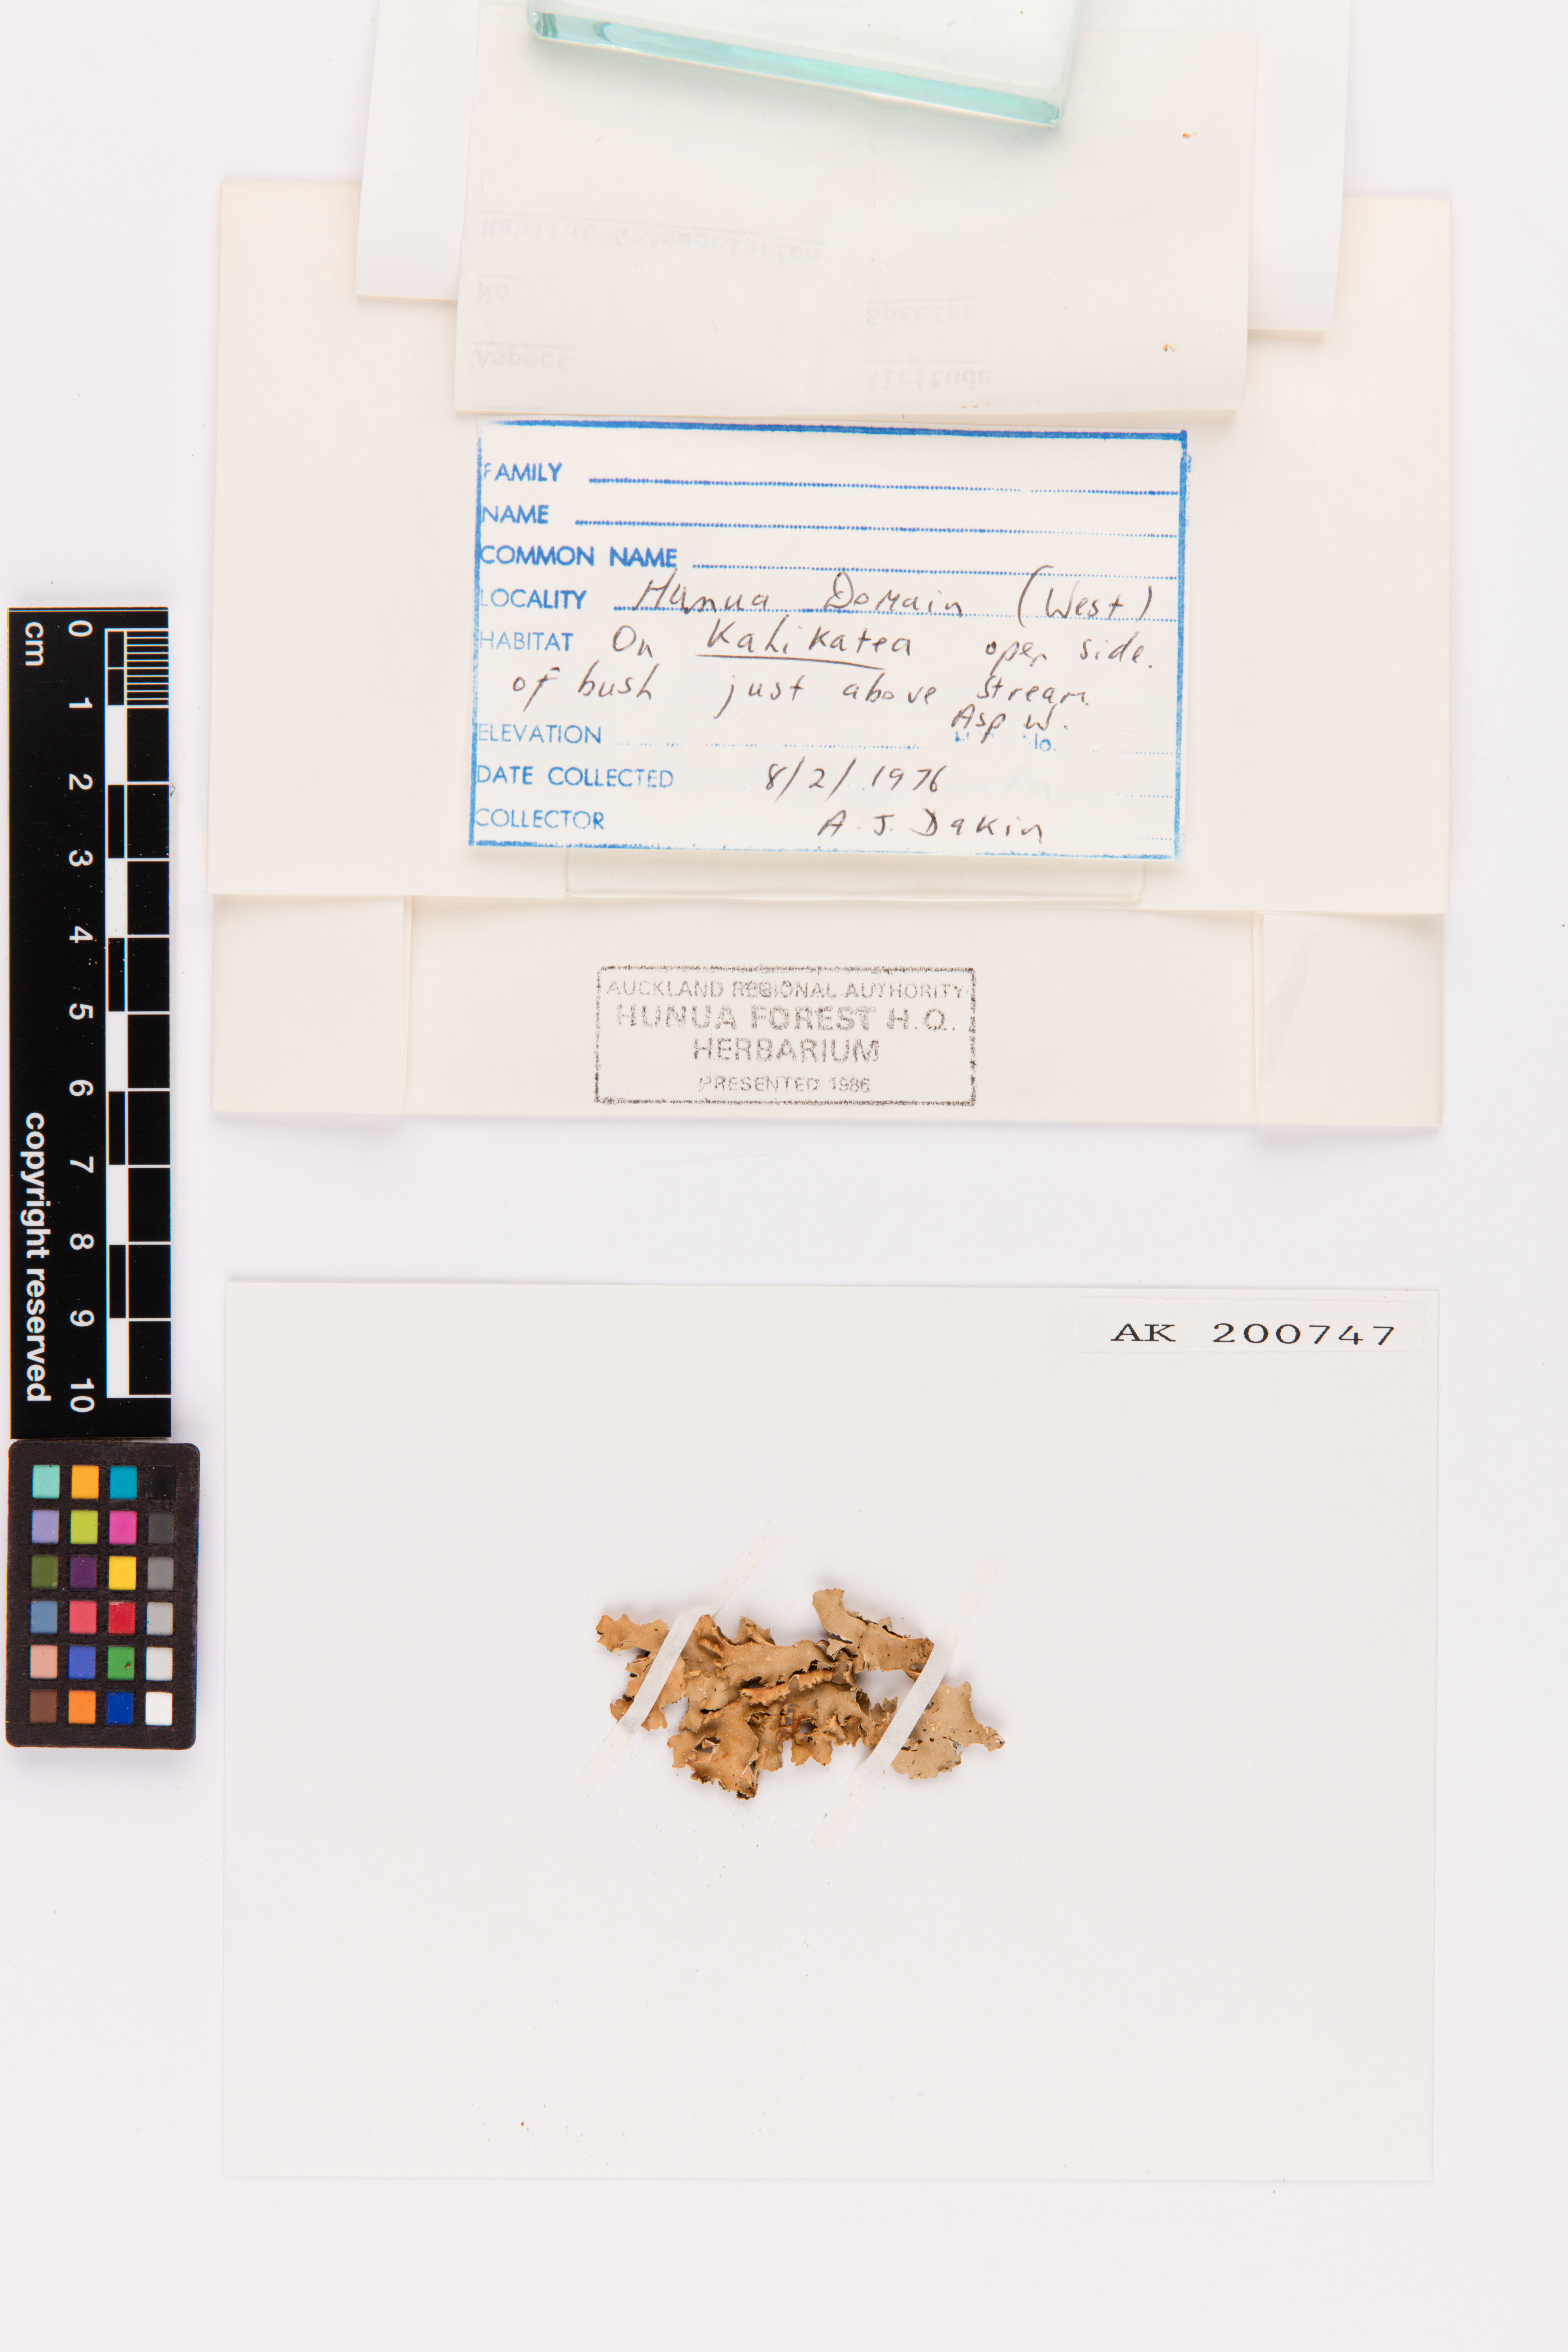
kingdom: Fungi
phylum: Ascomycota
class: Lecanoromycetes
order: Peltigerales
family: Lobariaceae
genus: Pseudocyphellaria
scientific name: Pseudocyphellaria episticta
